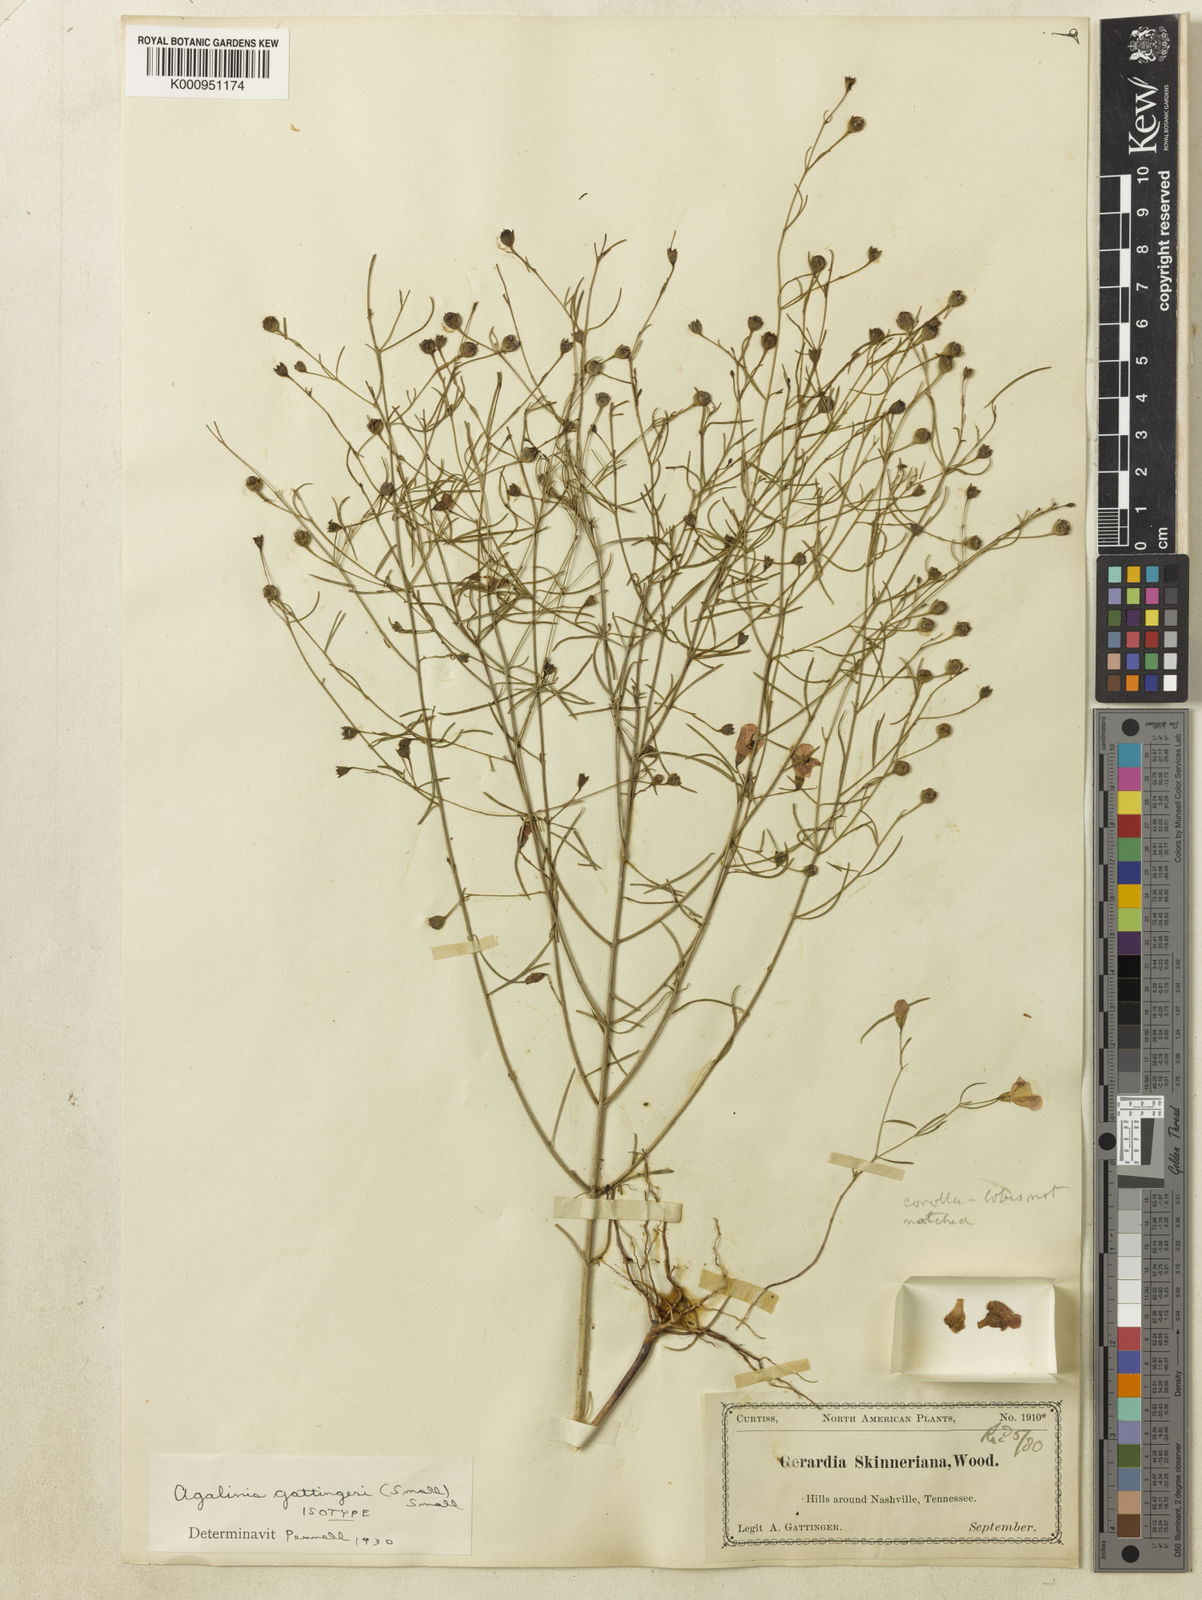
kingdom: Plantae
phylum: Tracheophyta
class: Magnoliopsida
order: Lamiales
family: Orobanchaceae
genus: Agalinis
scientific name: Agalinis
